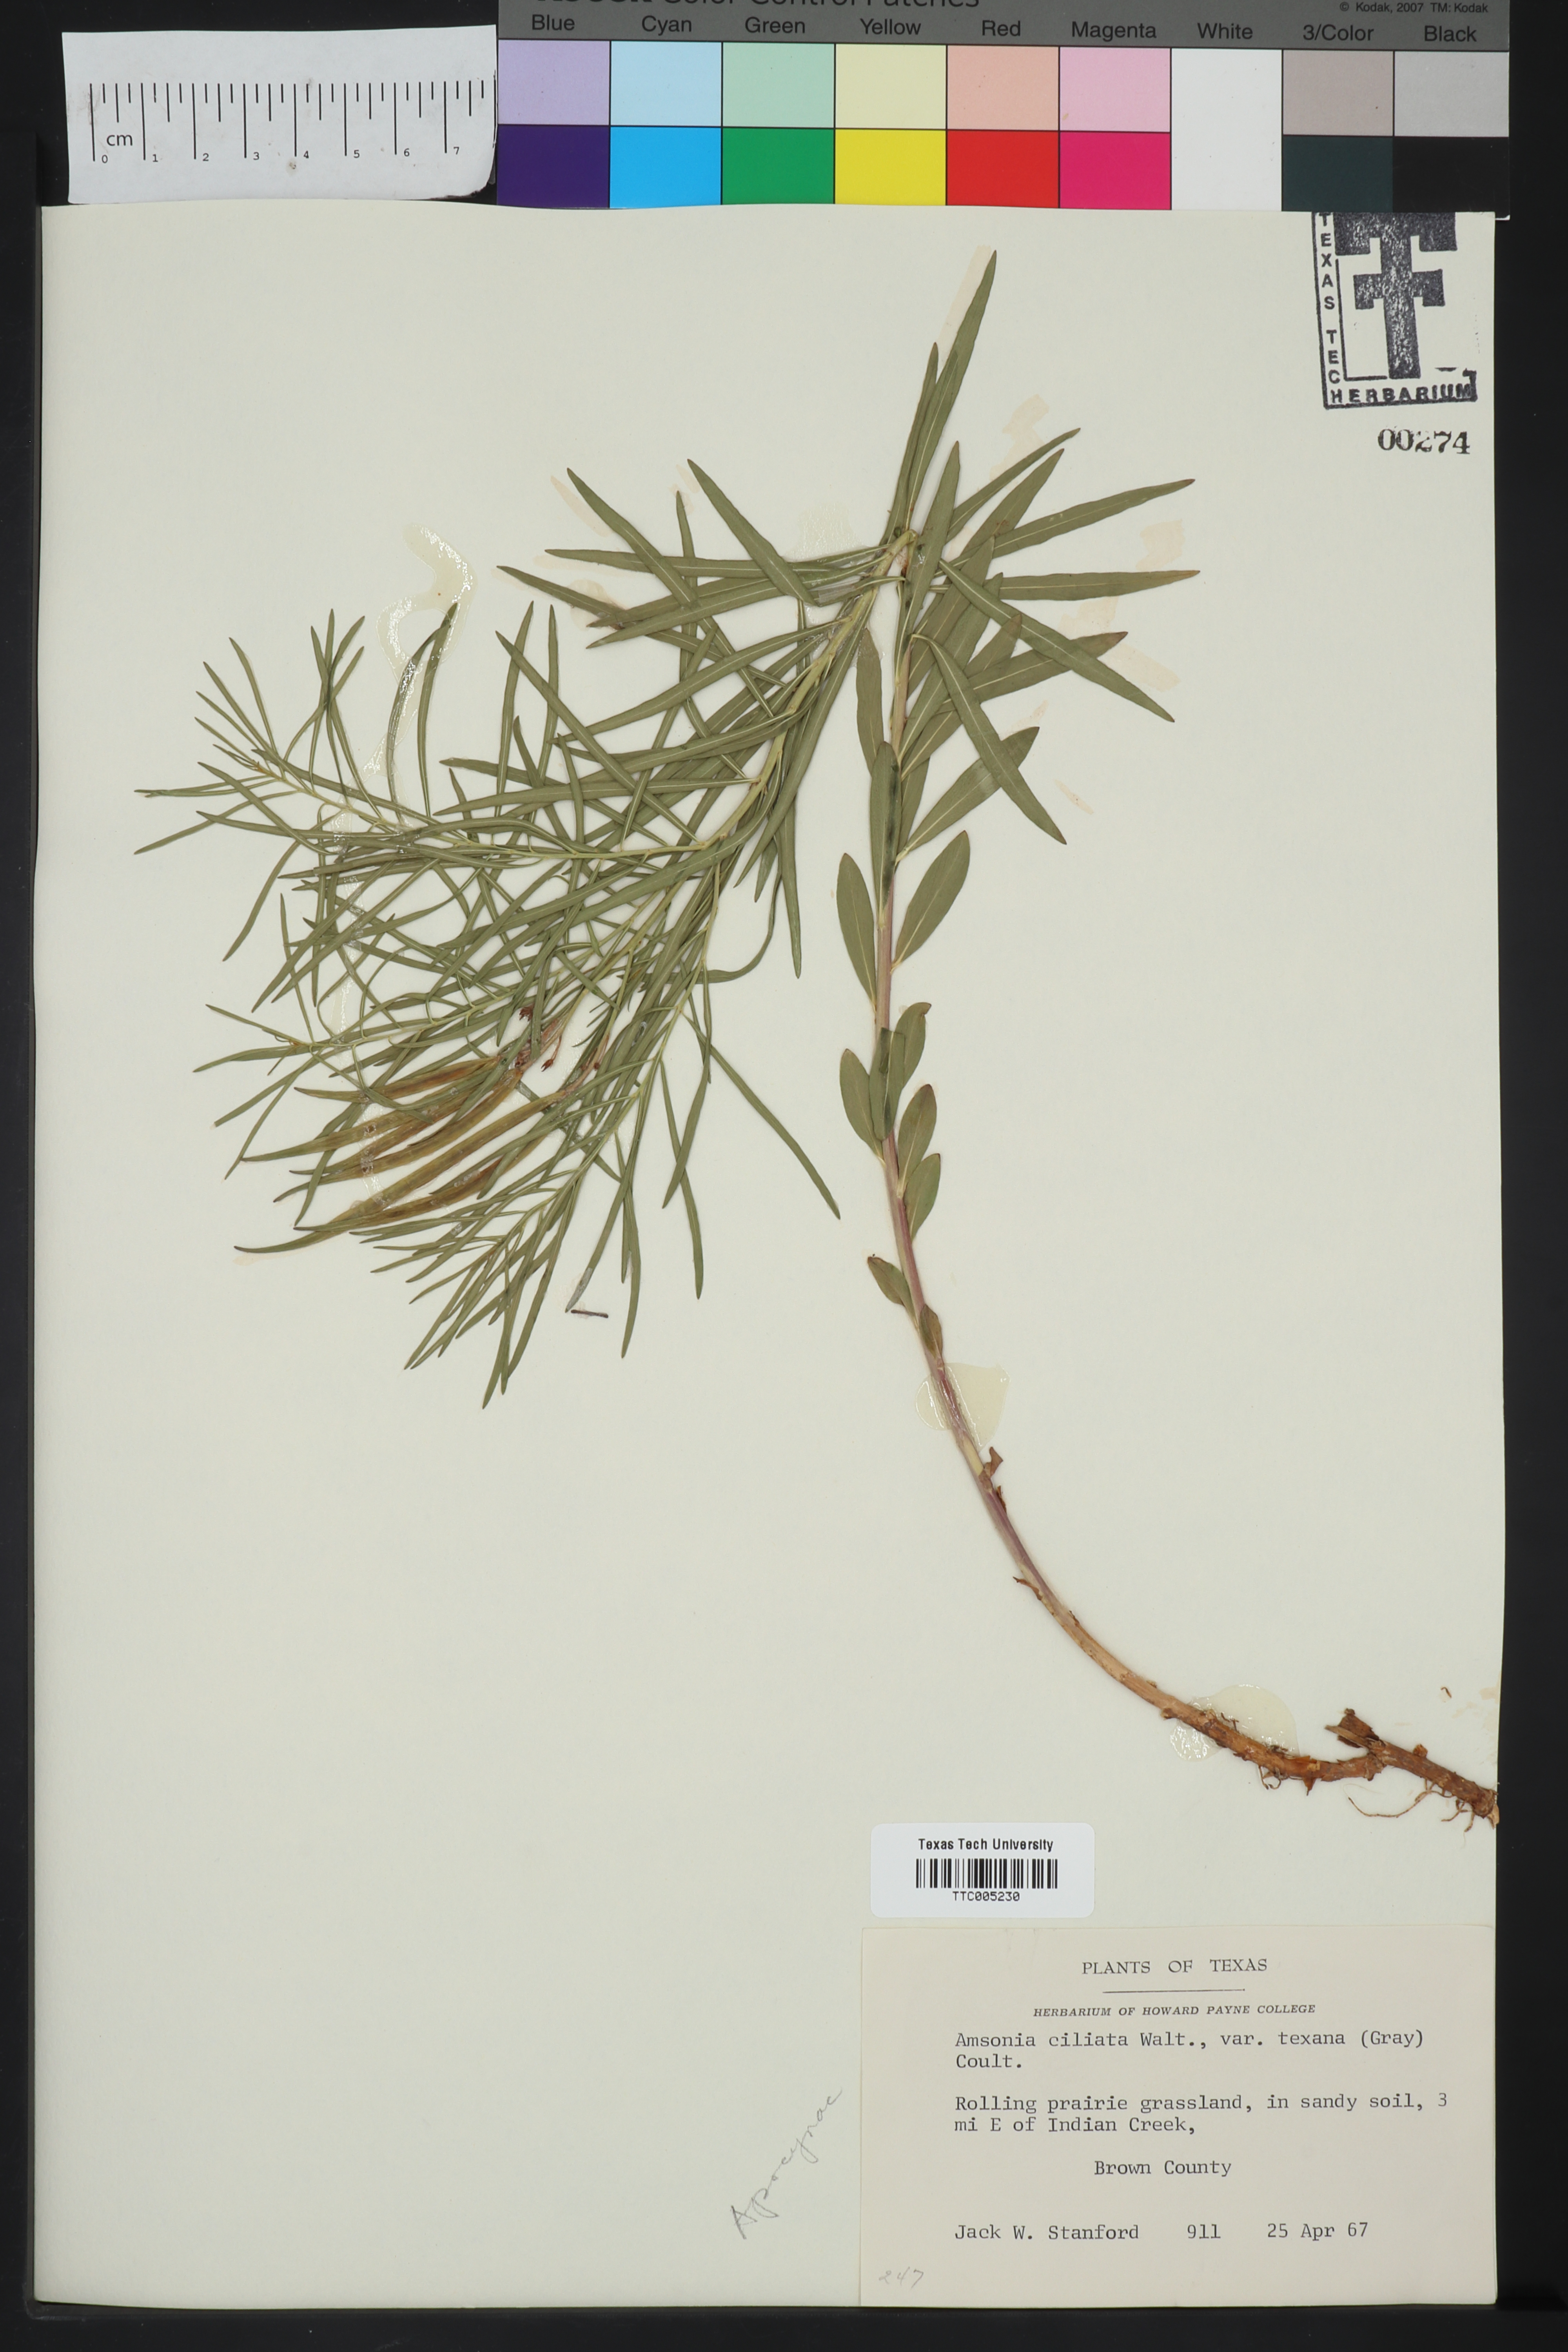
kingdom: Plantae
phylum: Tracheophyta
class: Magnoliopsida
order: Gentianales
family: Apocynaceae
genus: Amsonia
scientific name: Amsonia ciliata
